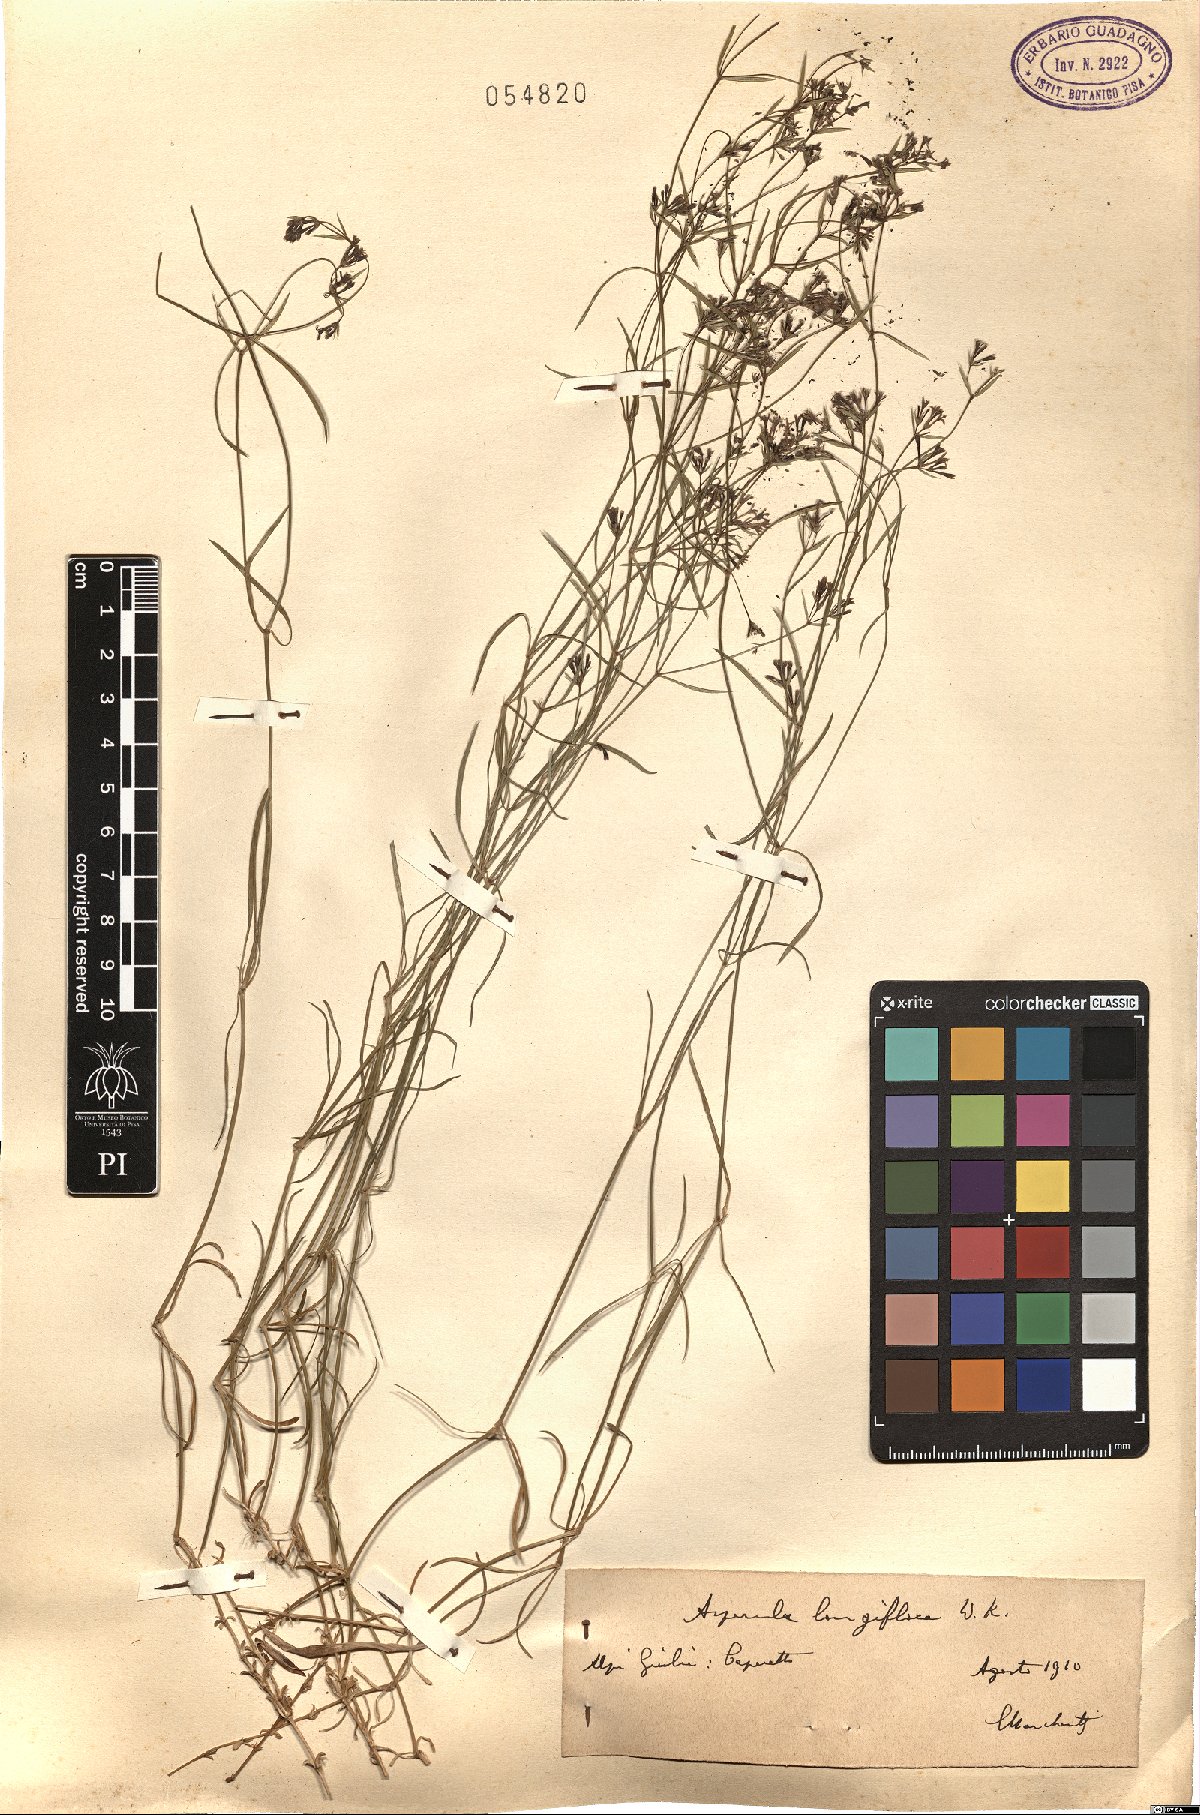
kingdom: Plantae
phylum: Tracheophyta
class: Magnoliopsida
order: Gentianales
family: Rubiaceae
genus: Cynanchica
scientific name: Cynanchica aristata
